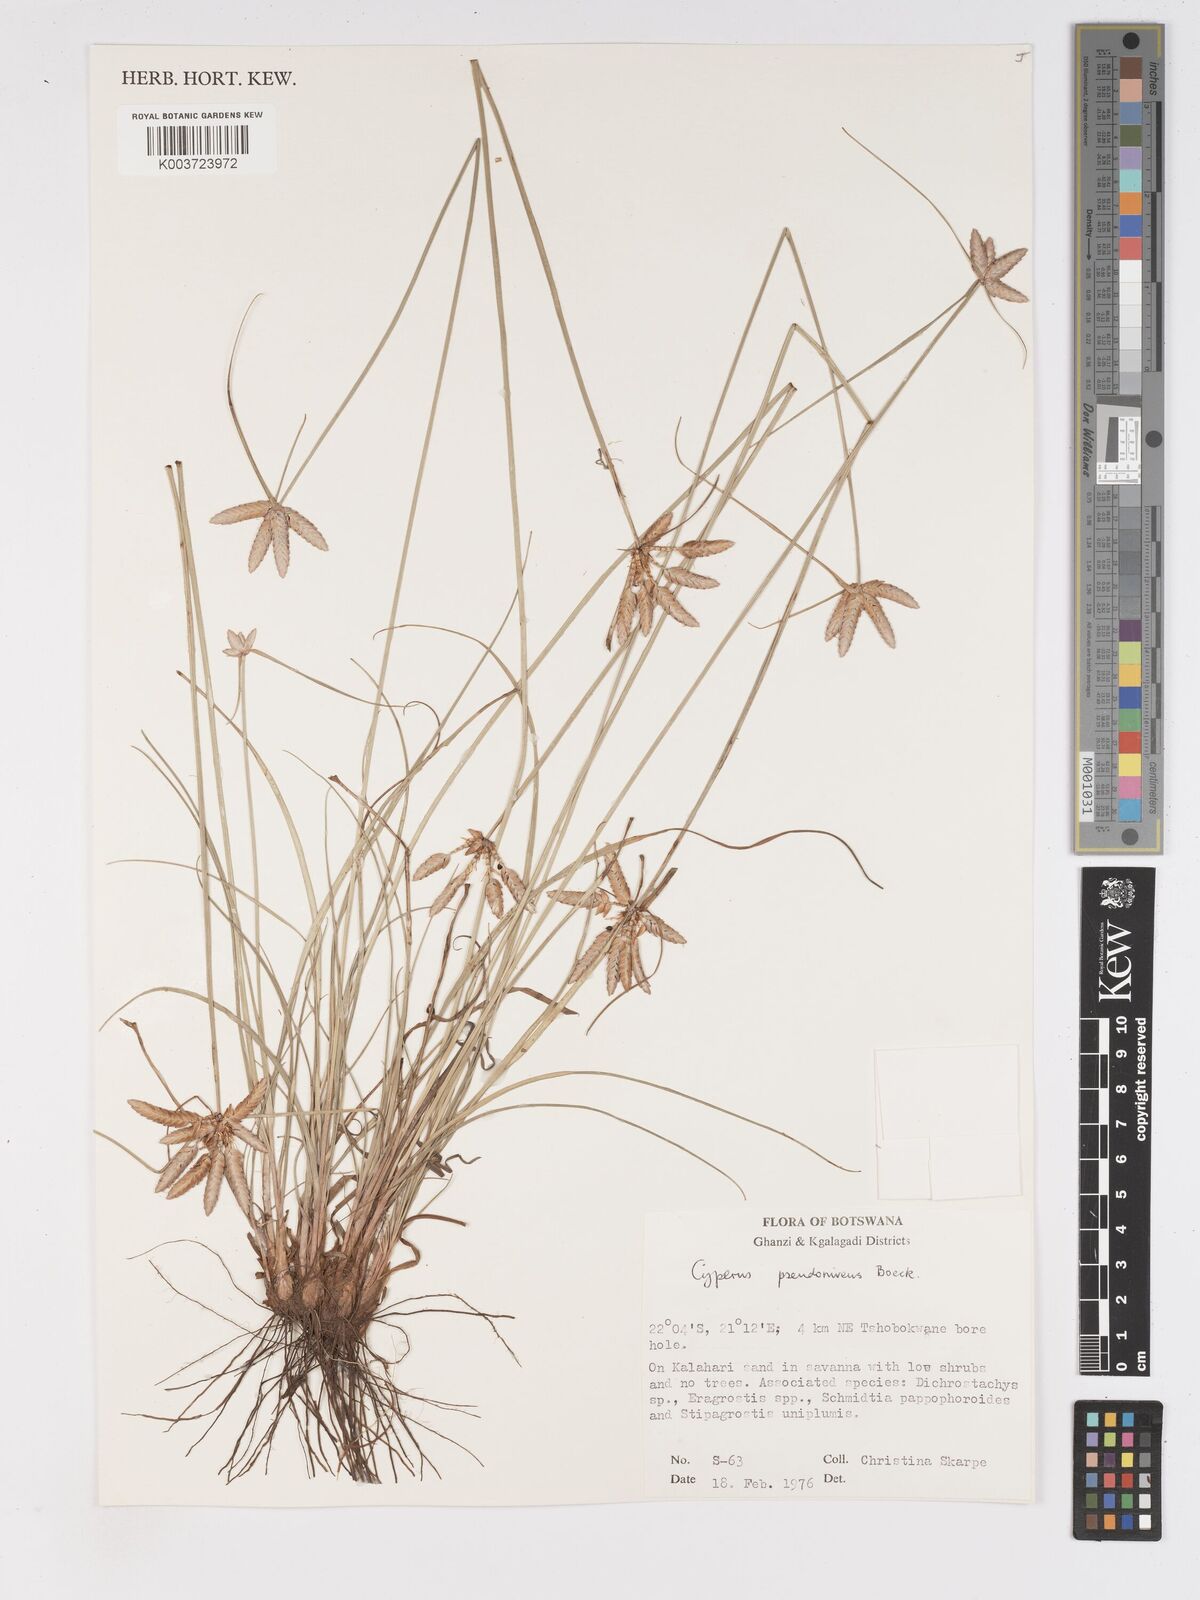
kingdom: Plantae
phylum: Tracheophyta
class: Liliopsida
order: Poales
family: Cyperaceae
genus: Cyperus
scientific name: Cyperus margaritaceus
